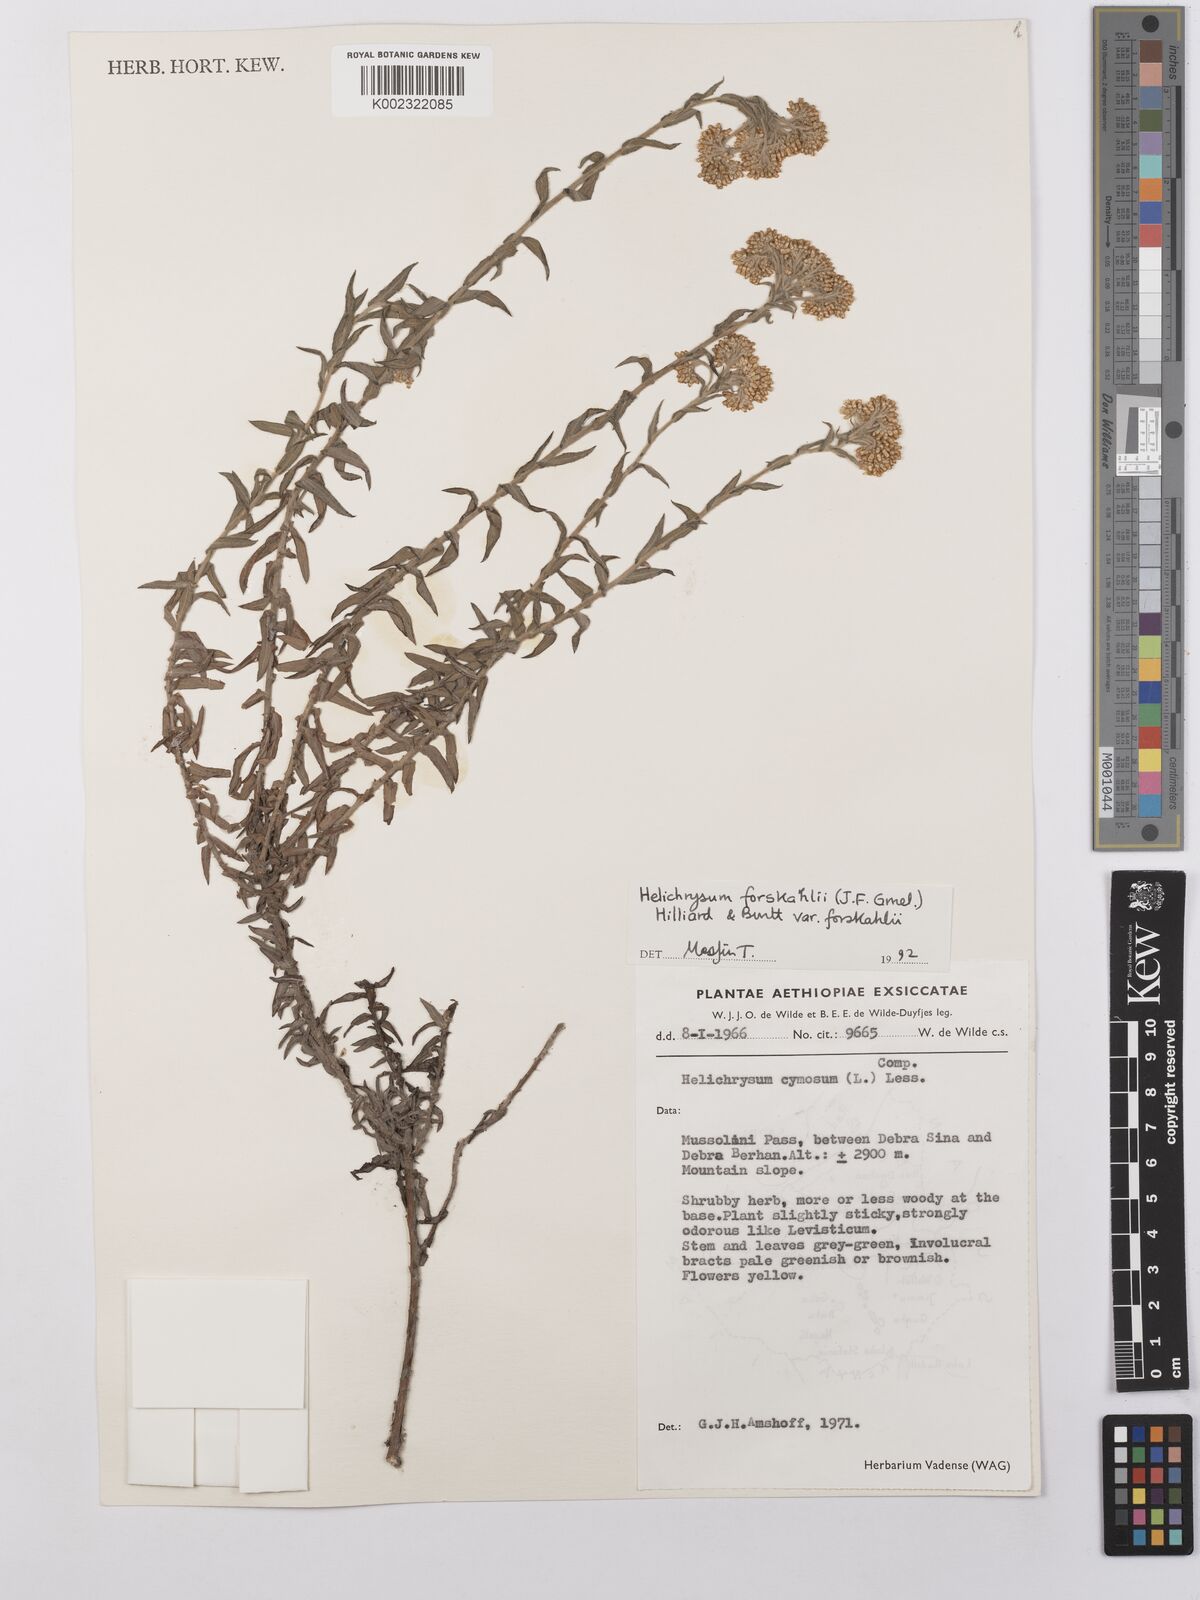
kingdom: Plantae
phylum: Tracheophyta
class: Magnoliopsida
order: Asterales
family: Asteraceae
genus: Helichrysum
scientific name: Helichrysum forskahlii
